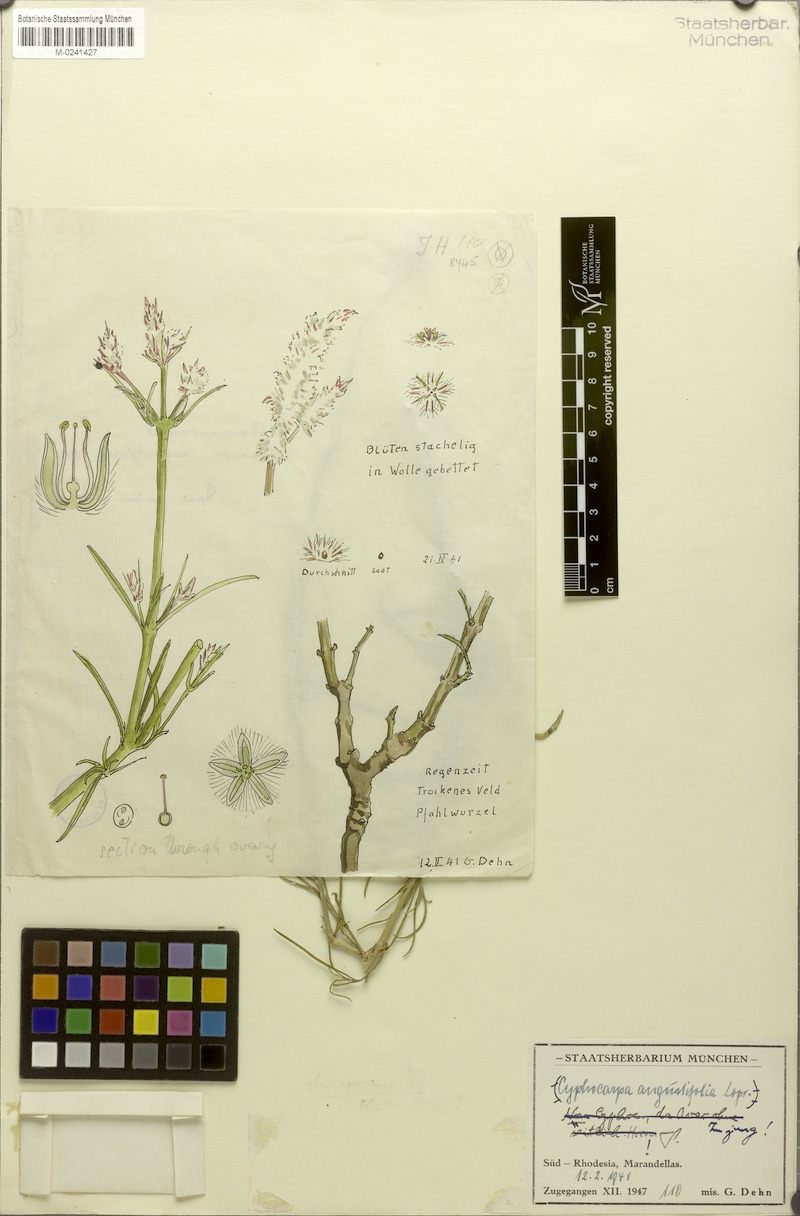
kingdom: Plantae
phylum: Tracheophyta
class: Magnoliopsida
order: Caryophyllales
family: Amaranthaceae
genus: Cyphocarpa
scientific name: Cyphocarpa angustifolia
